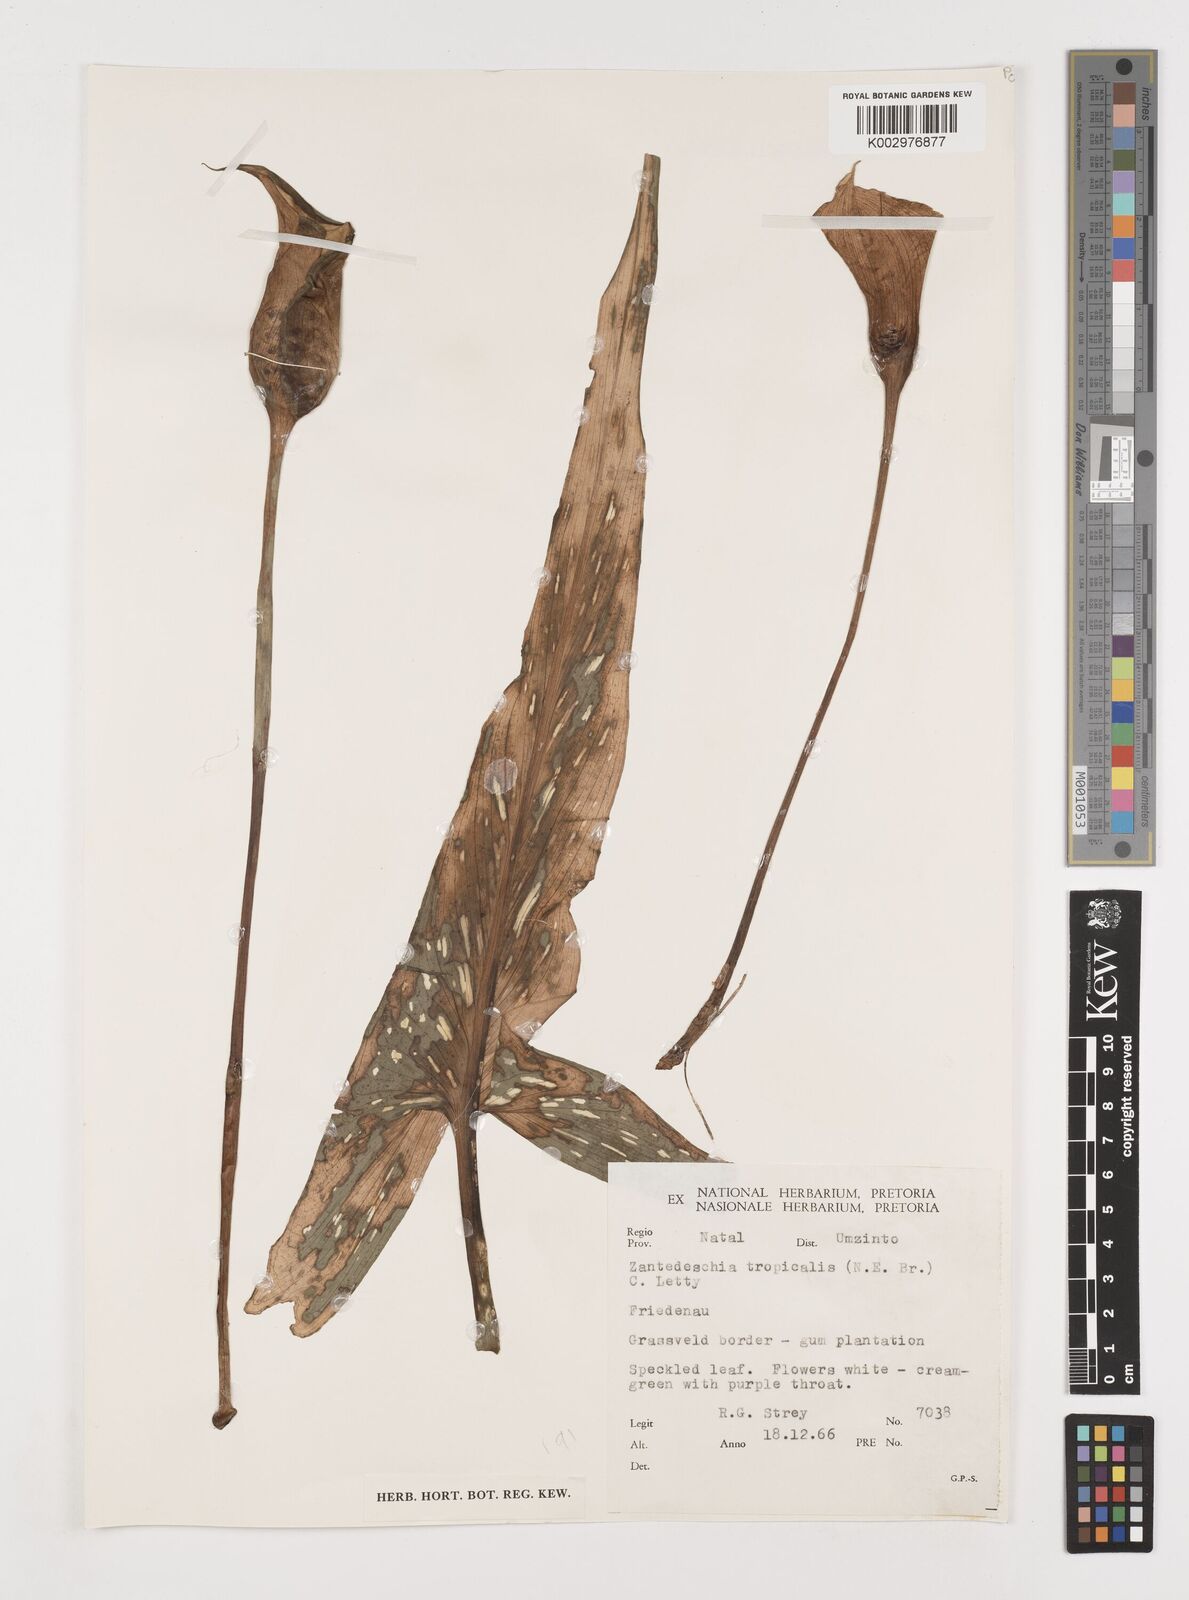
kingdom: Plantae
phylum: Tracheophyta
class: Liliopsida
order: Alismatales
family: Araceae
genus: Zantedeschia
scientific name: Zantedeschia albomaculata
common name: Spotted calla lily
